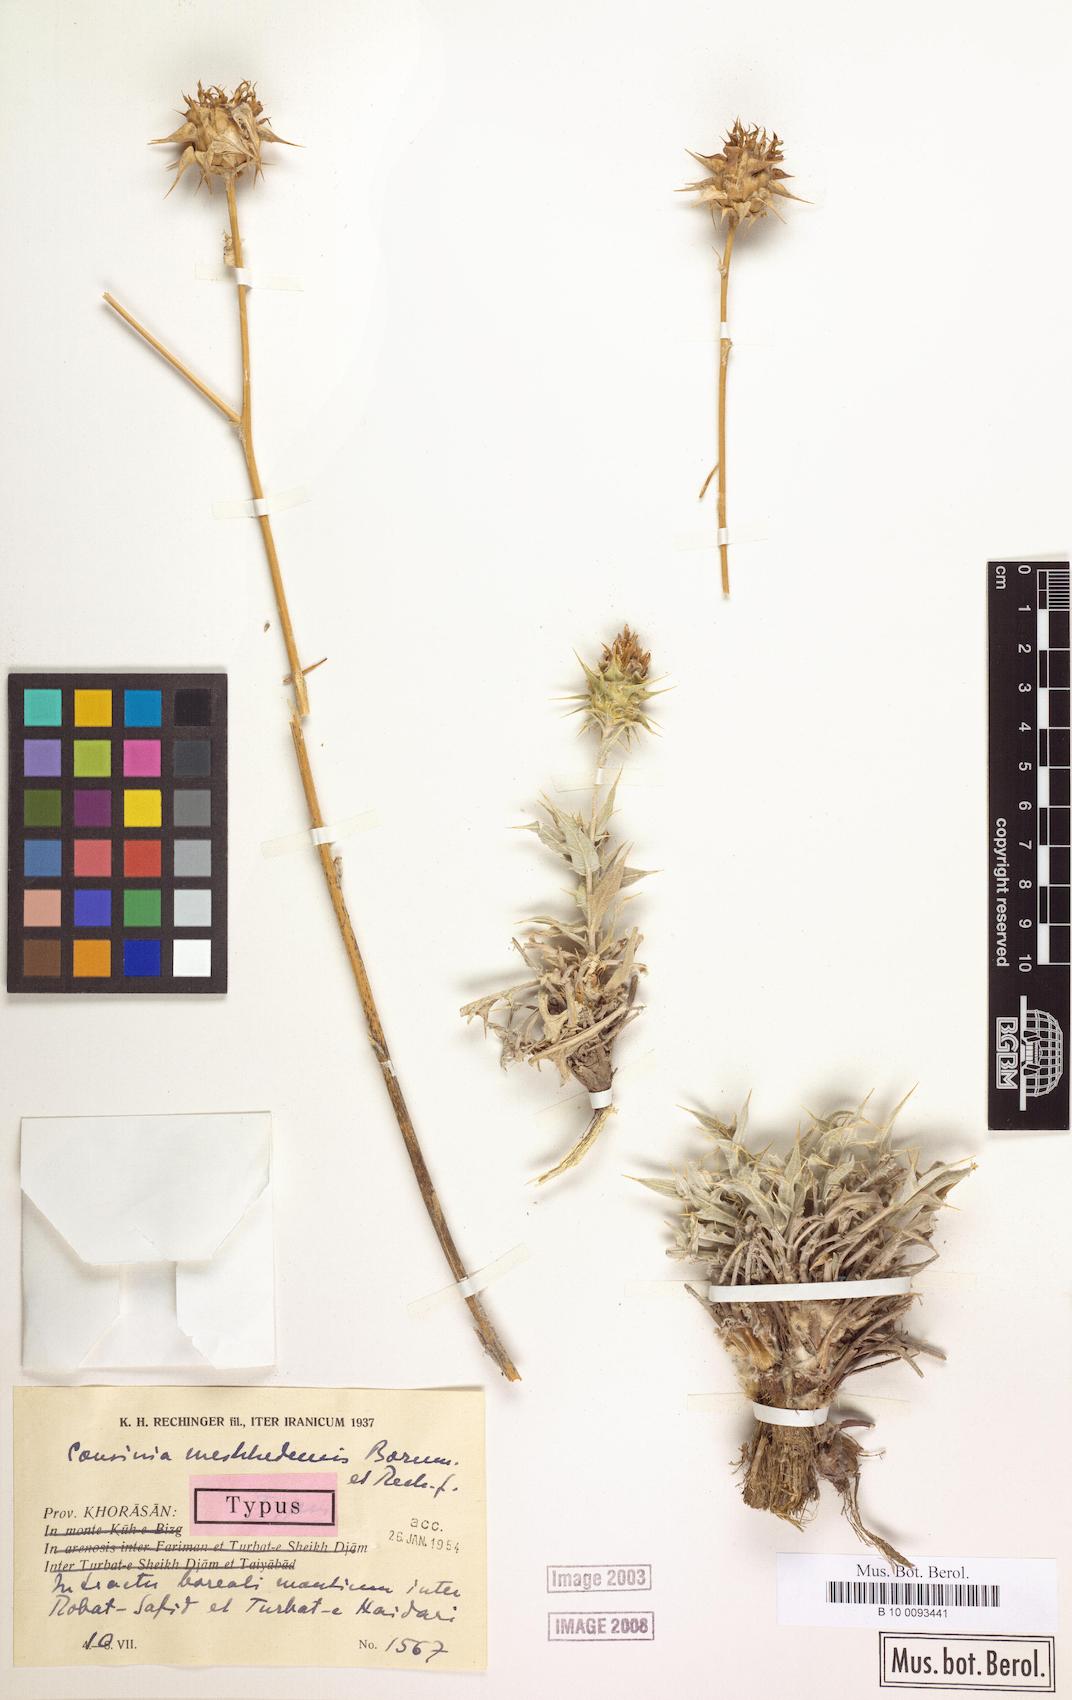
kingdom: Plantae
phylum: Tracheophyta
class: Magnoliopsida
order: Asterales
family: Asteraceae
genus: Cousinia
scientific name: Cousinia meshhedensis
